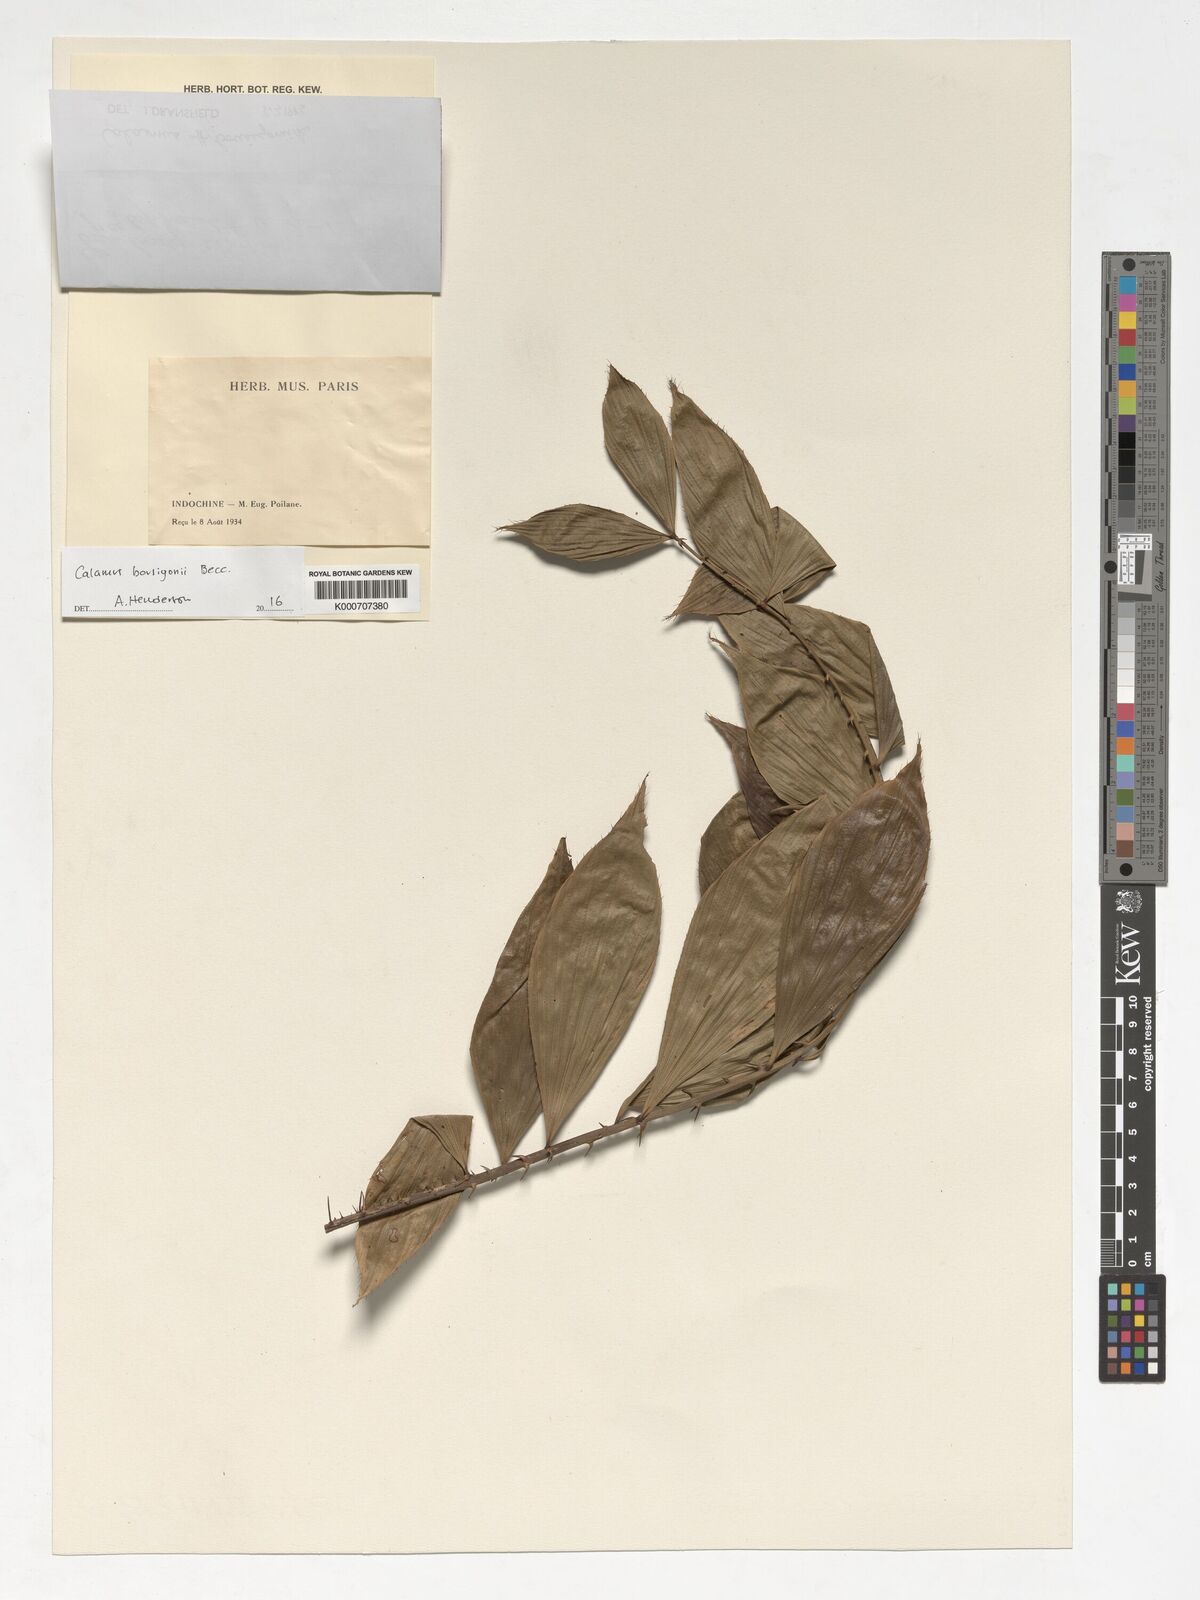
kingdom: Plantae
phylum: Tracheophyta
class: Liliopsida
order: Arecales
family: Arecaceae
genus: Calamus
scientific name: Calamus bousigonii
